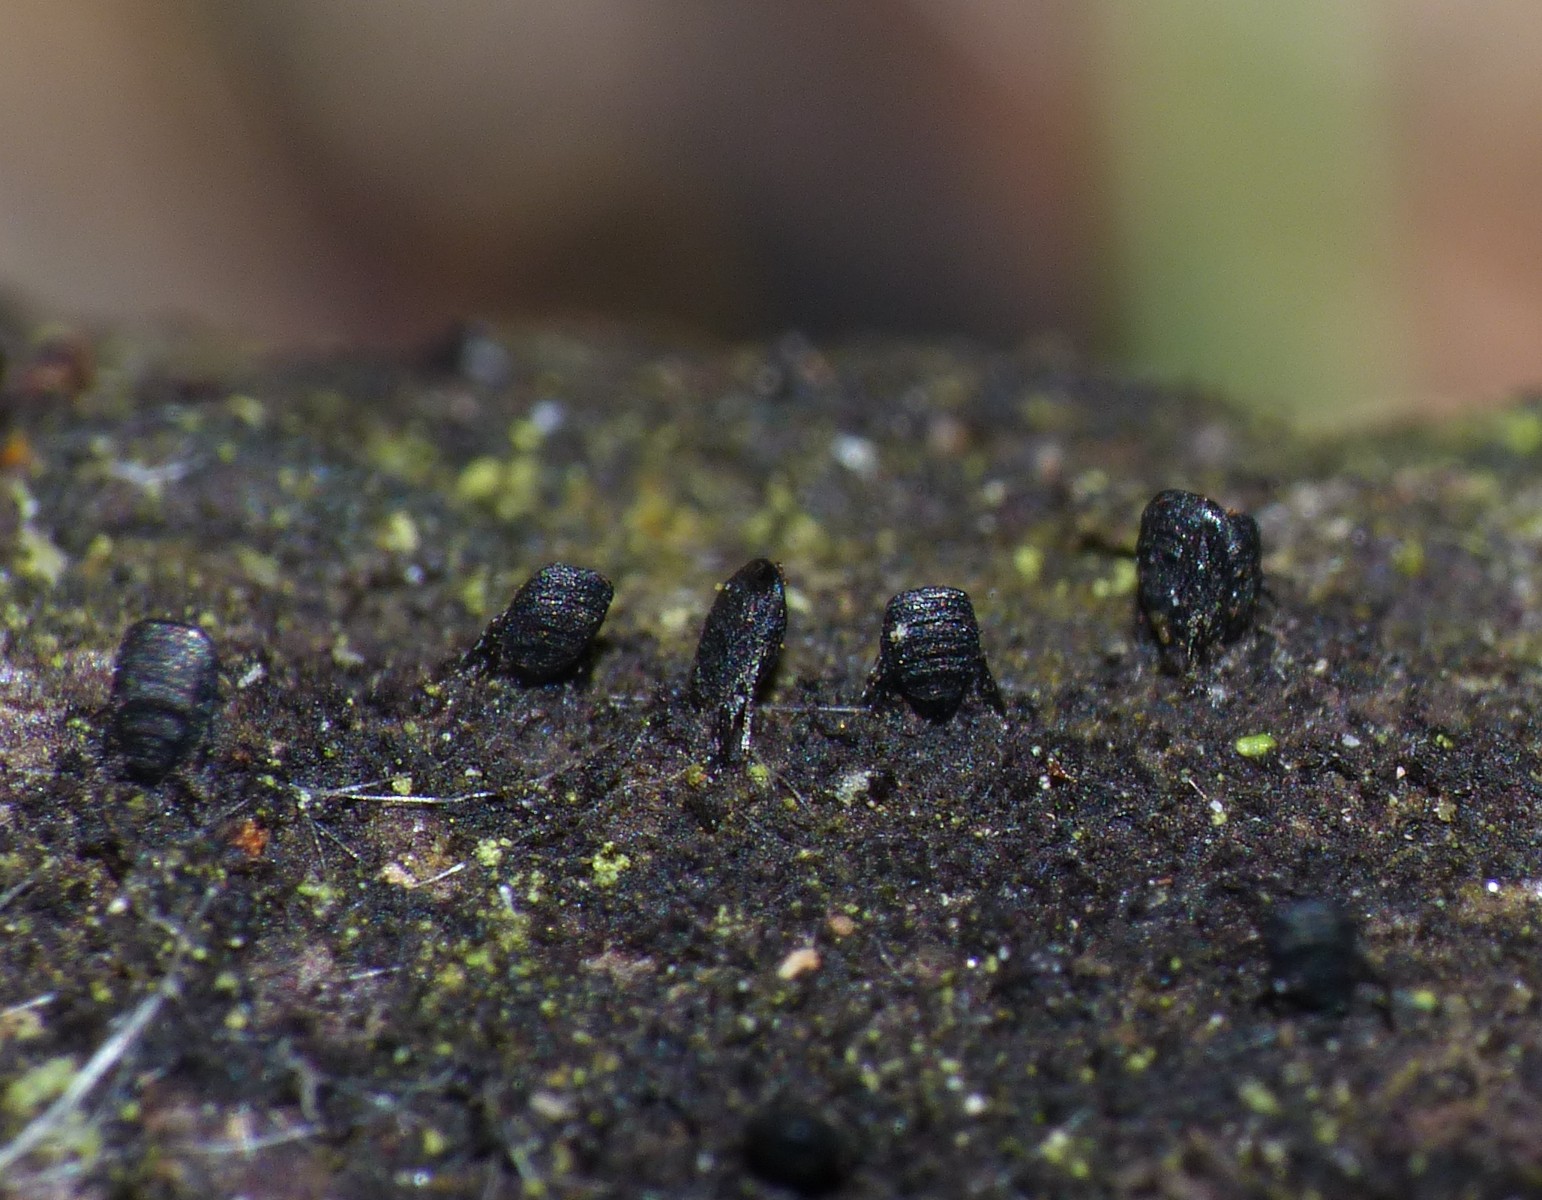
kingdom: Fungi
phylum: Ascomycota
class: Eurotiomycetes
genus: Glyphium
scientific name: Glyphium elatum
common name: kuløkse
